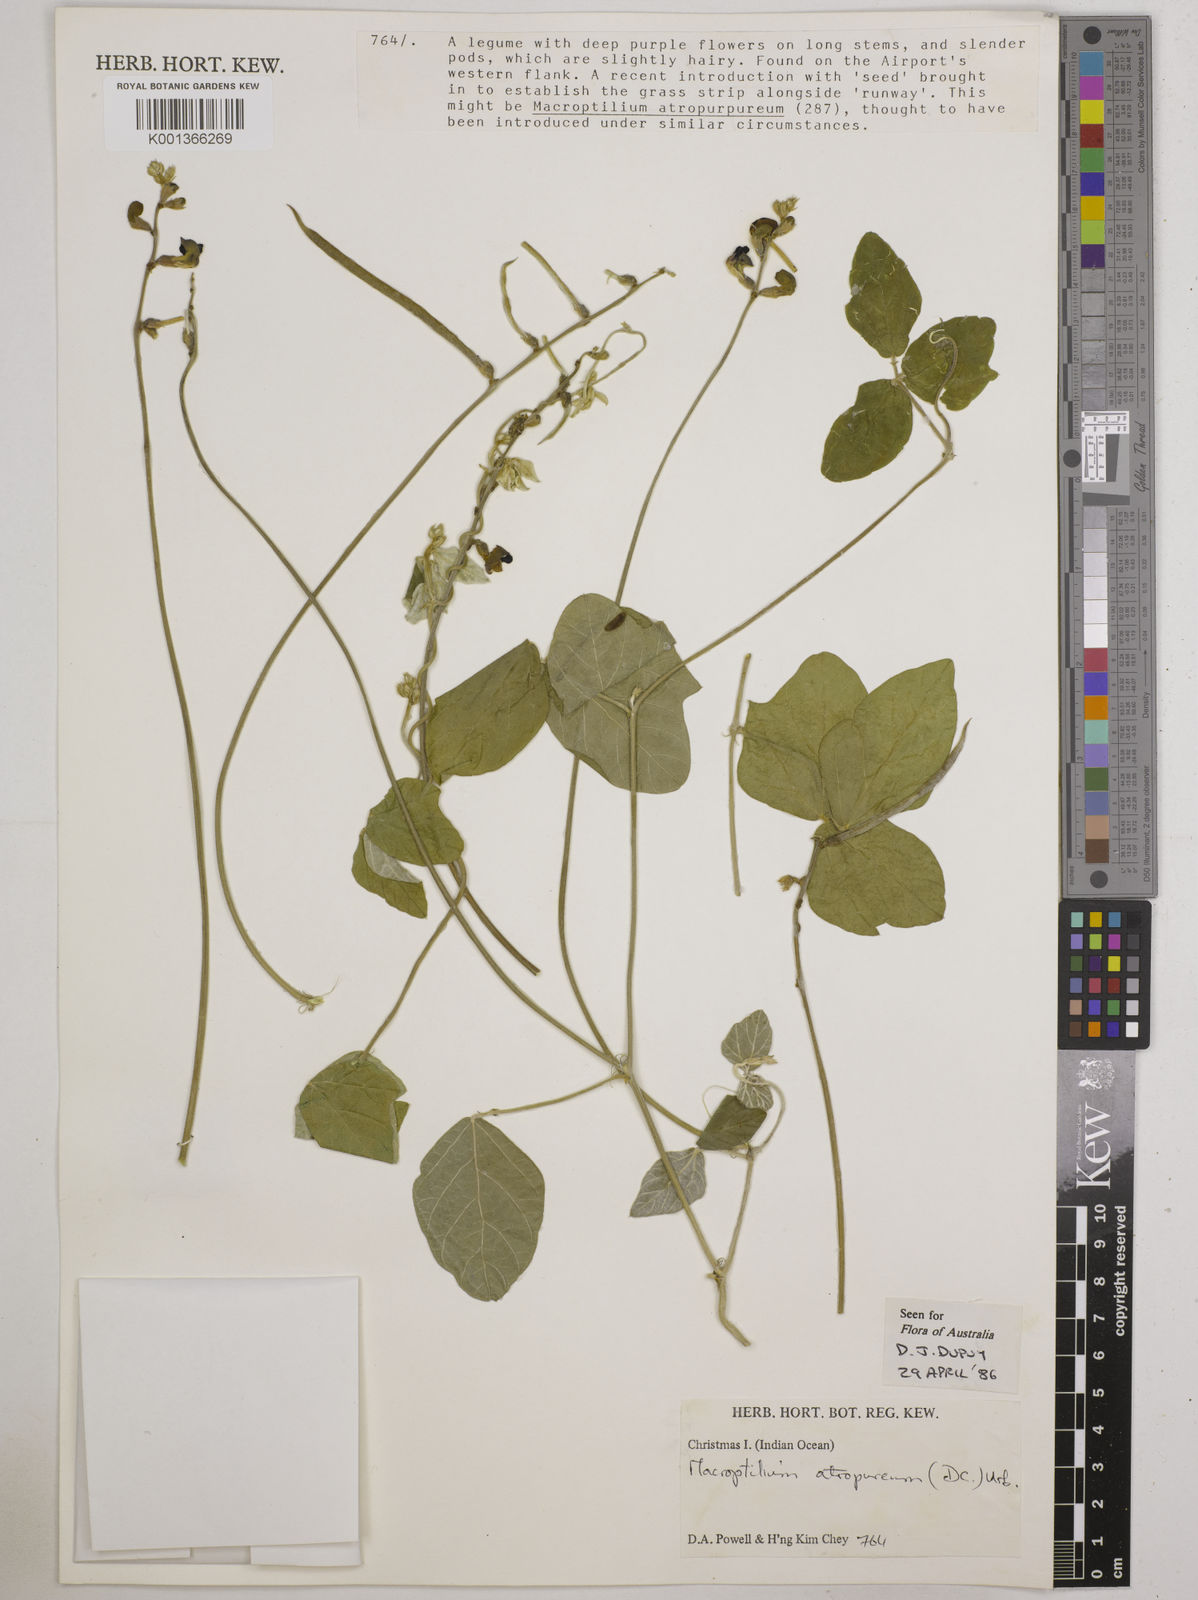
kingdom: Plantae
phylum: Tracheophyta
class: Magnoliopsida
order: Fabales
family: Fabaceae
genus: Macroptilium
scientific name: Macroptilium atropurpureum
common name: Purple bushbean
